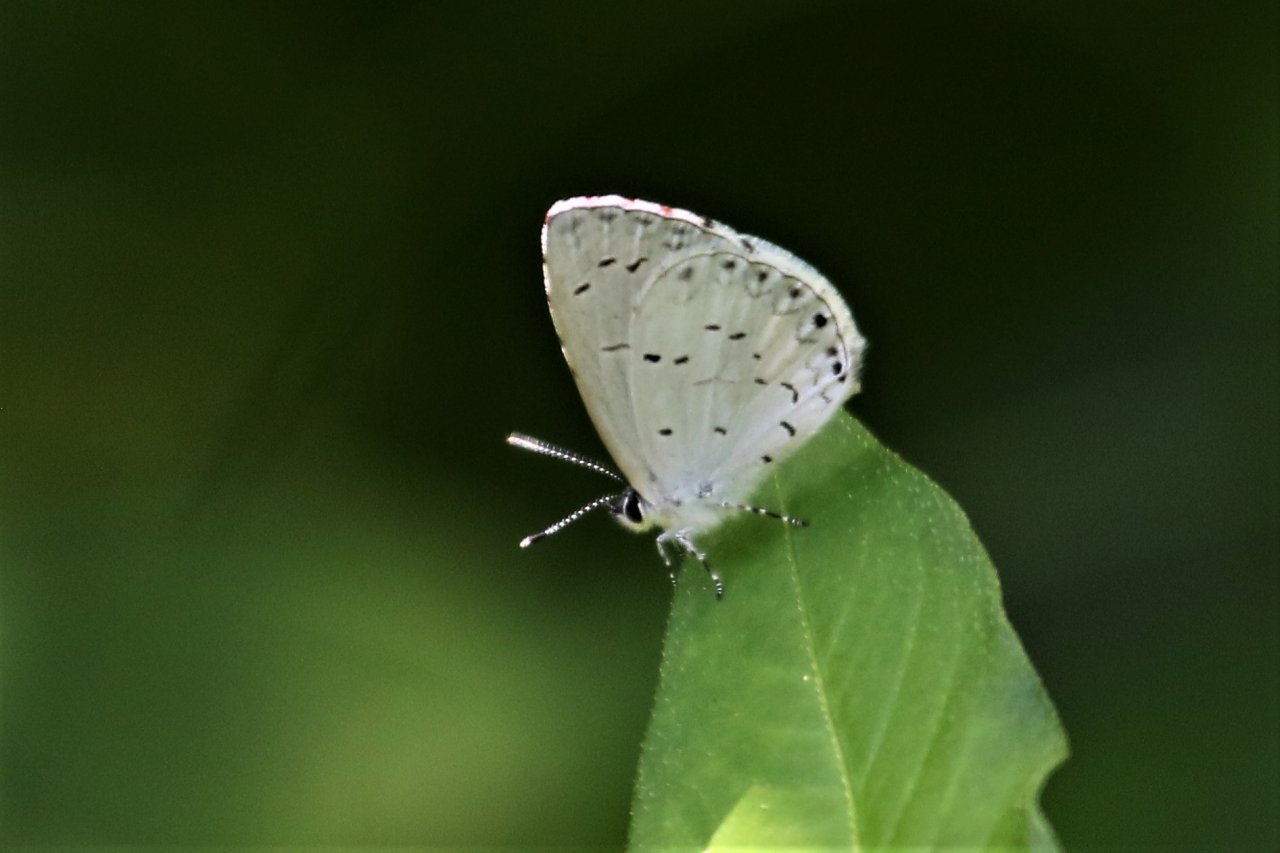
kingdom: Animalia
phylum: Arthropoda
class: Insecta
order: Lepidoptera
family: Lycaenidae
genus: Cyaniris
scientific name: Cyaniris neglecta
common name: Summer Azure
